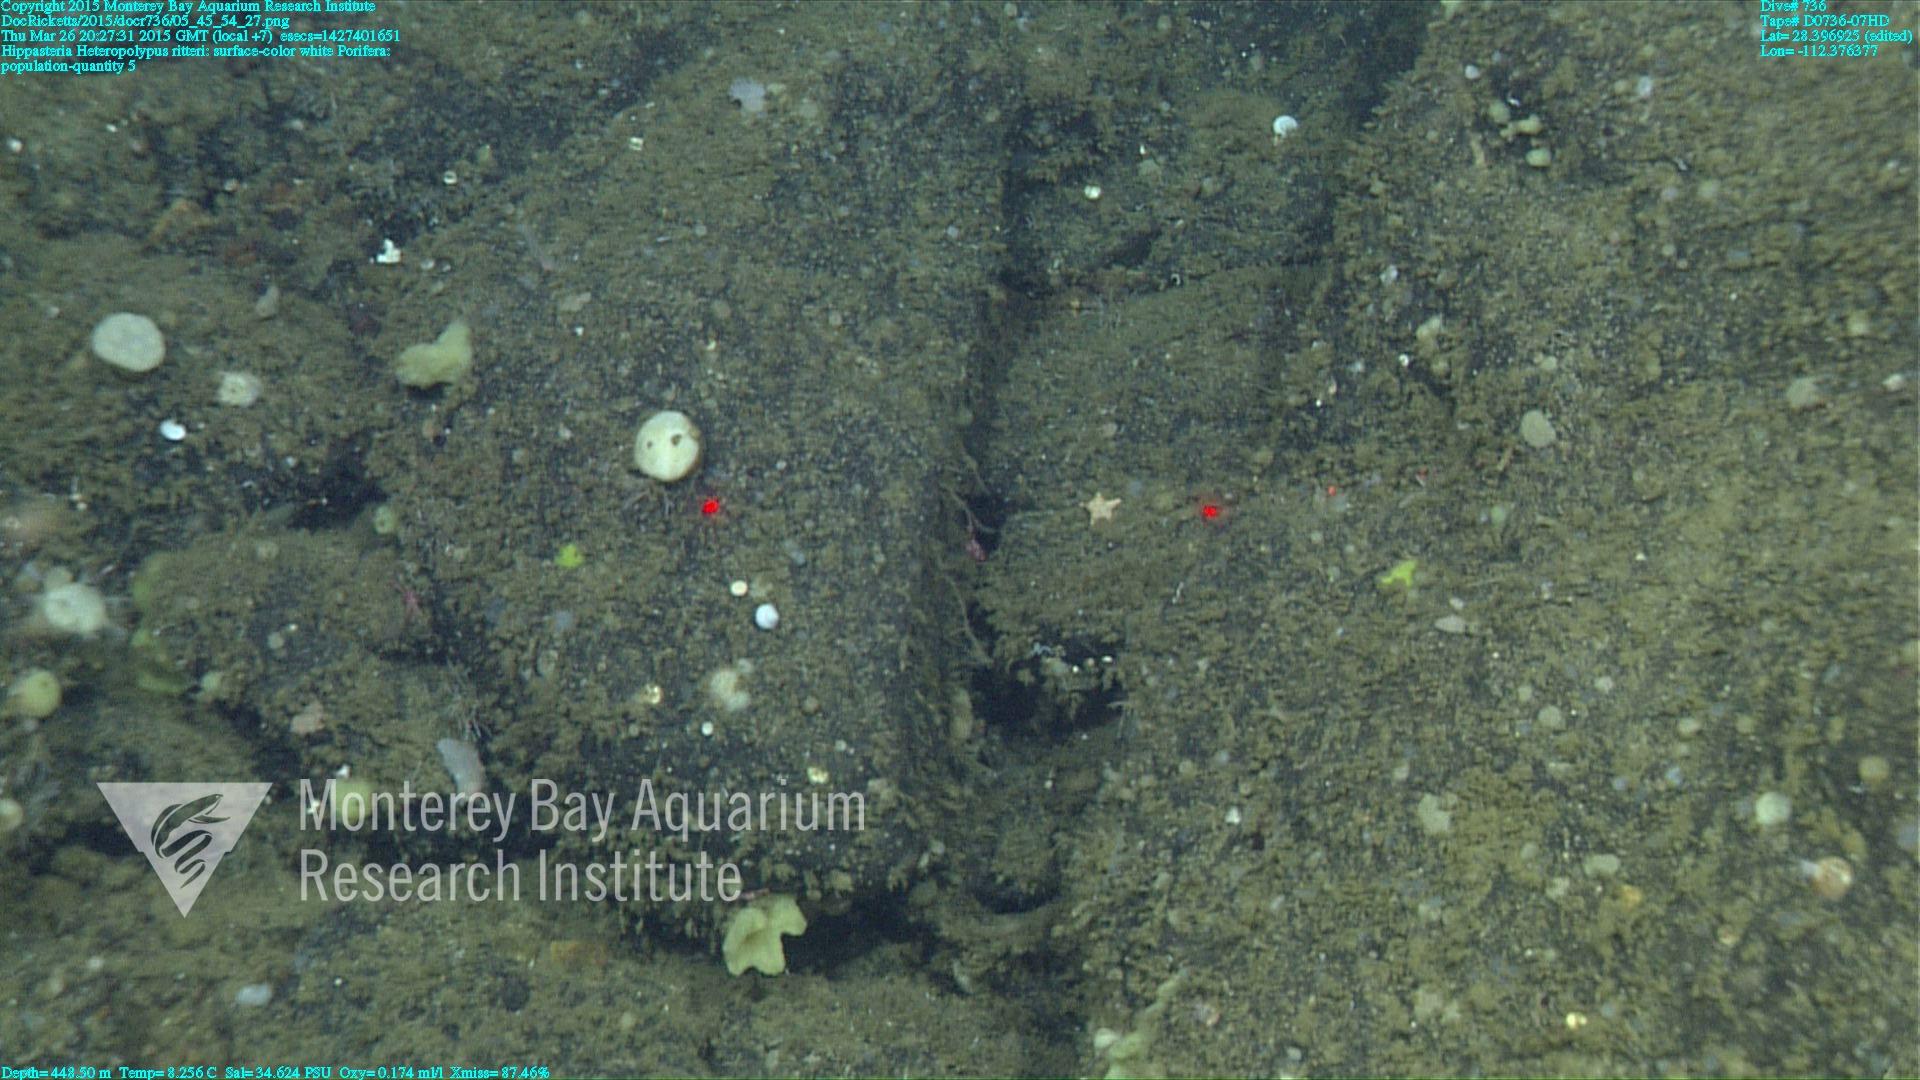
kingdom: Animalia
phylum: Cnidaria
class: Anthozoa
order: Scleralcyonacea
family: Coralliidae
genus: Heteropolypus
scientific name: Heteropolypus ritteri
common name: Ritter's soft coral
